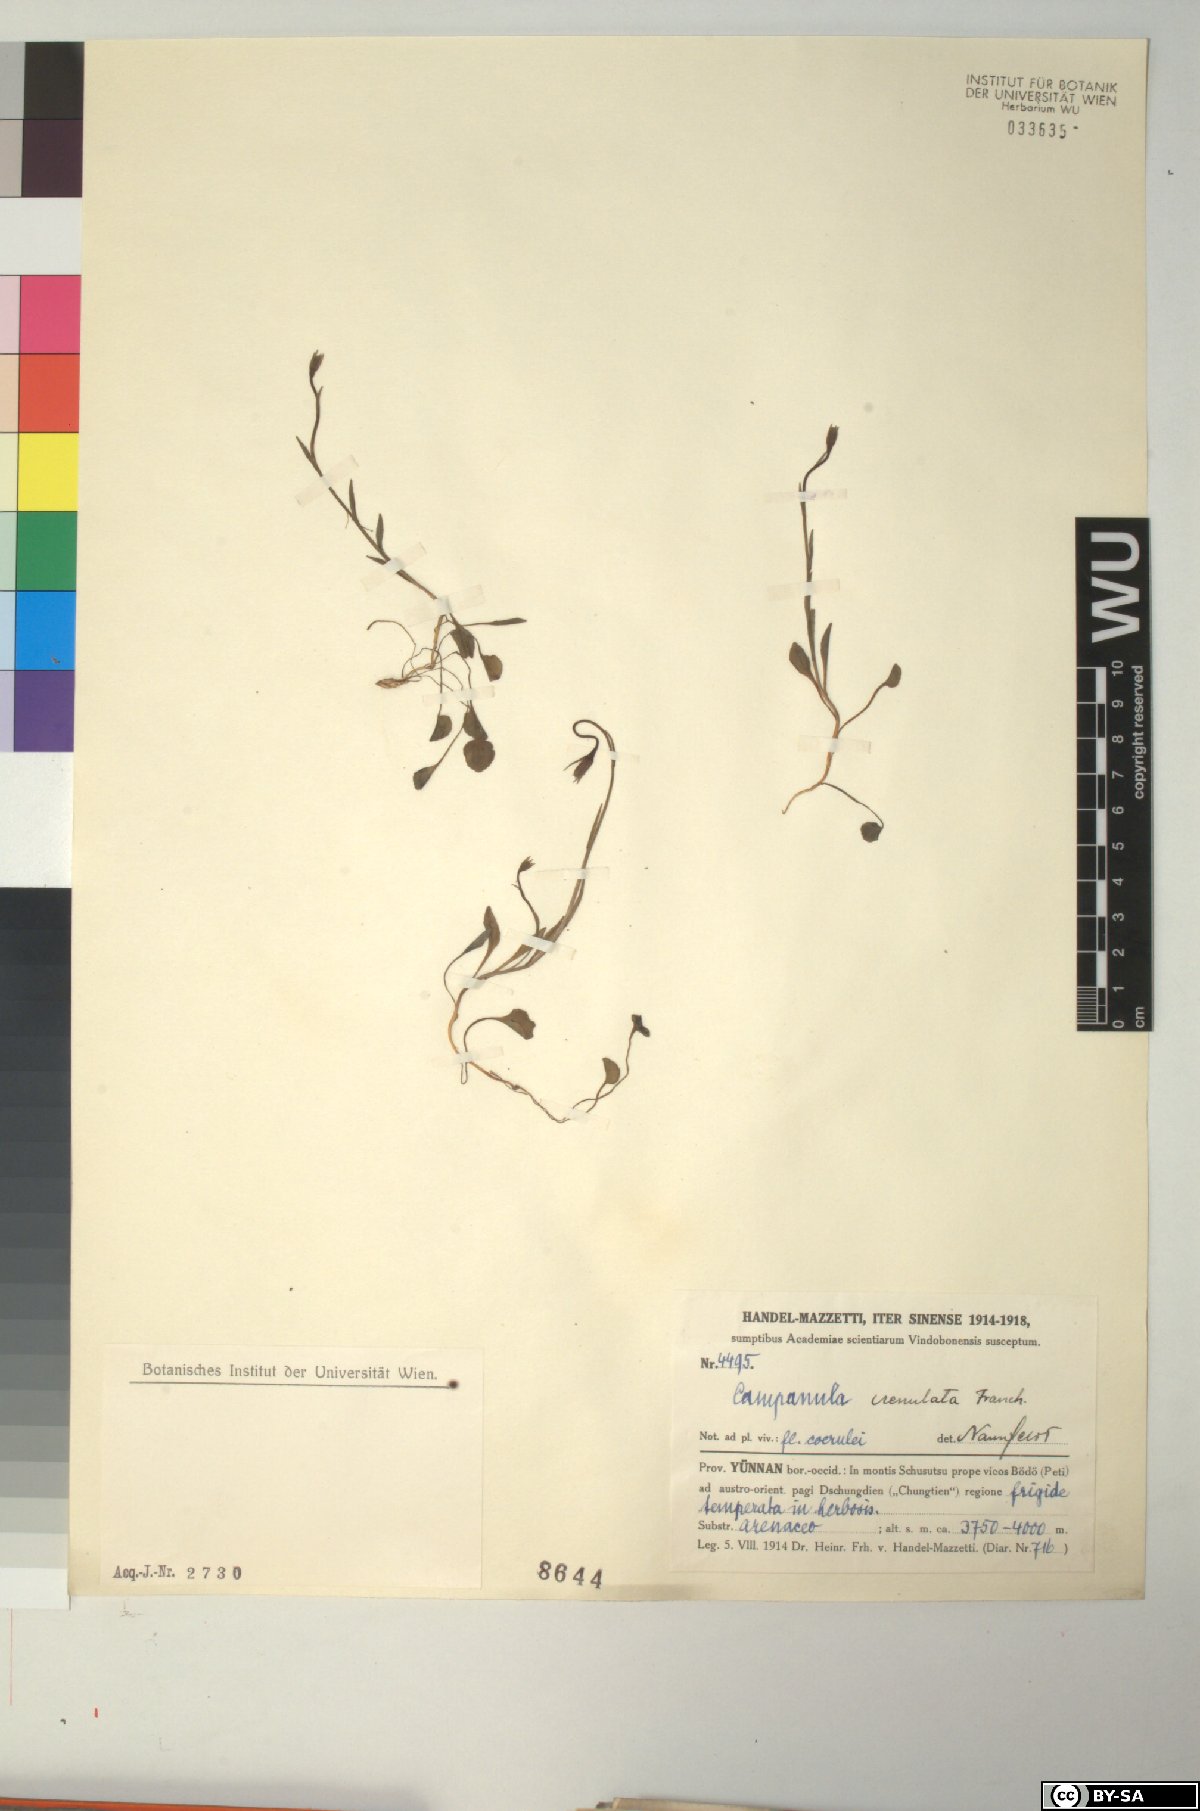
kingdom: Plantae
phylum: Tracheophyta
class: Magnoliopsida
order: Asterales
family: Campanulaceae
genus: Campanula
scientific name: Campanula crenulata
